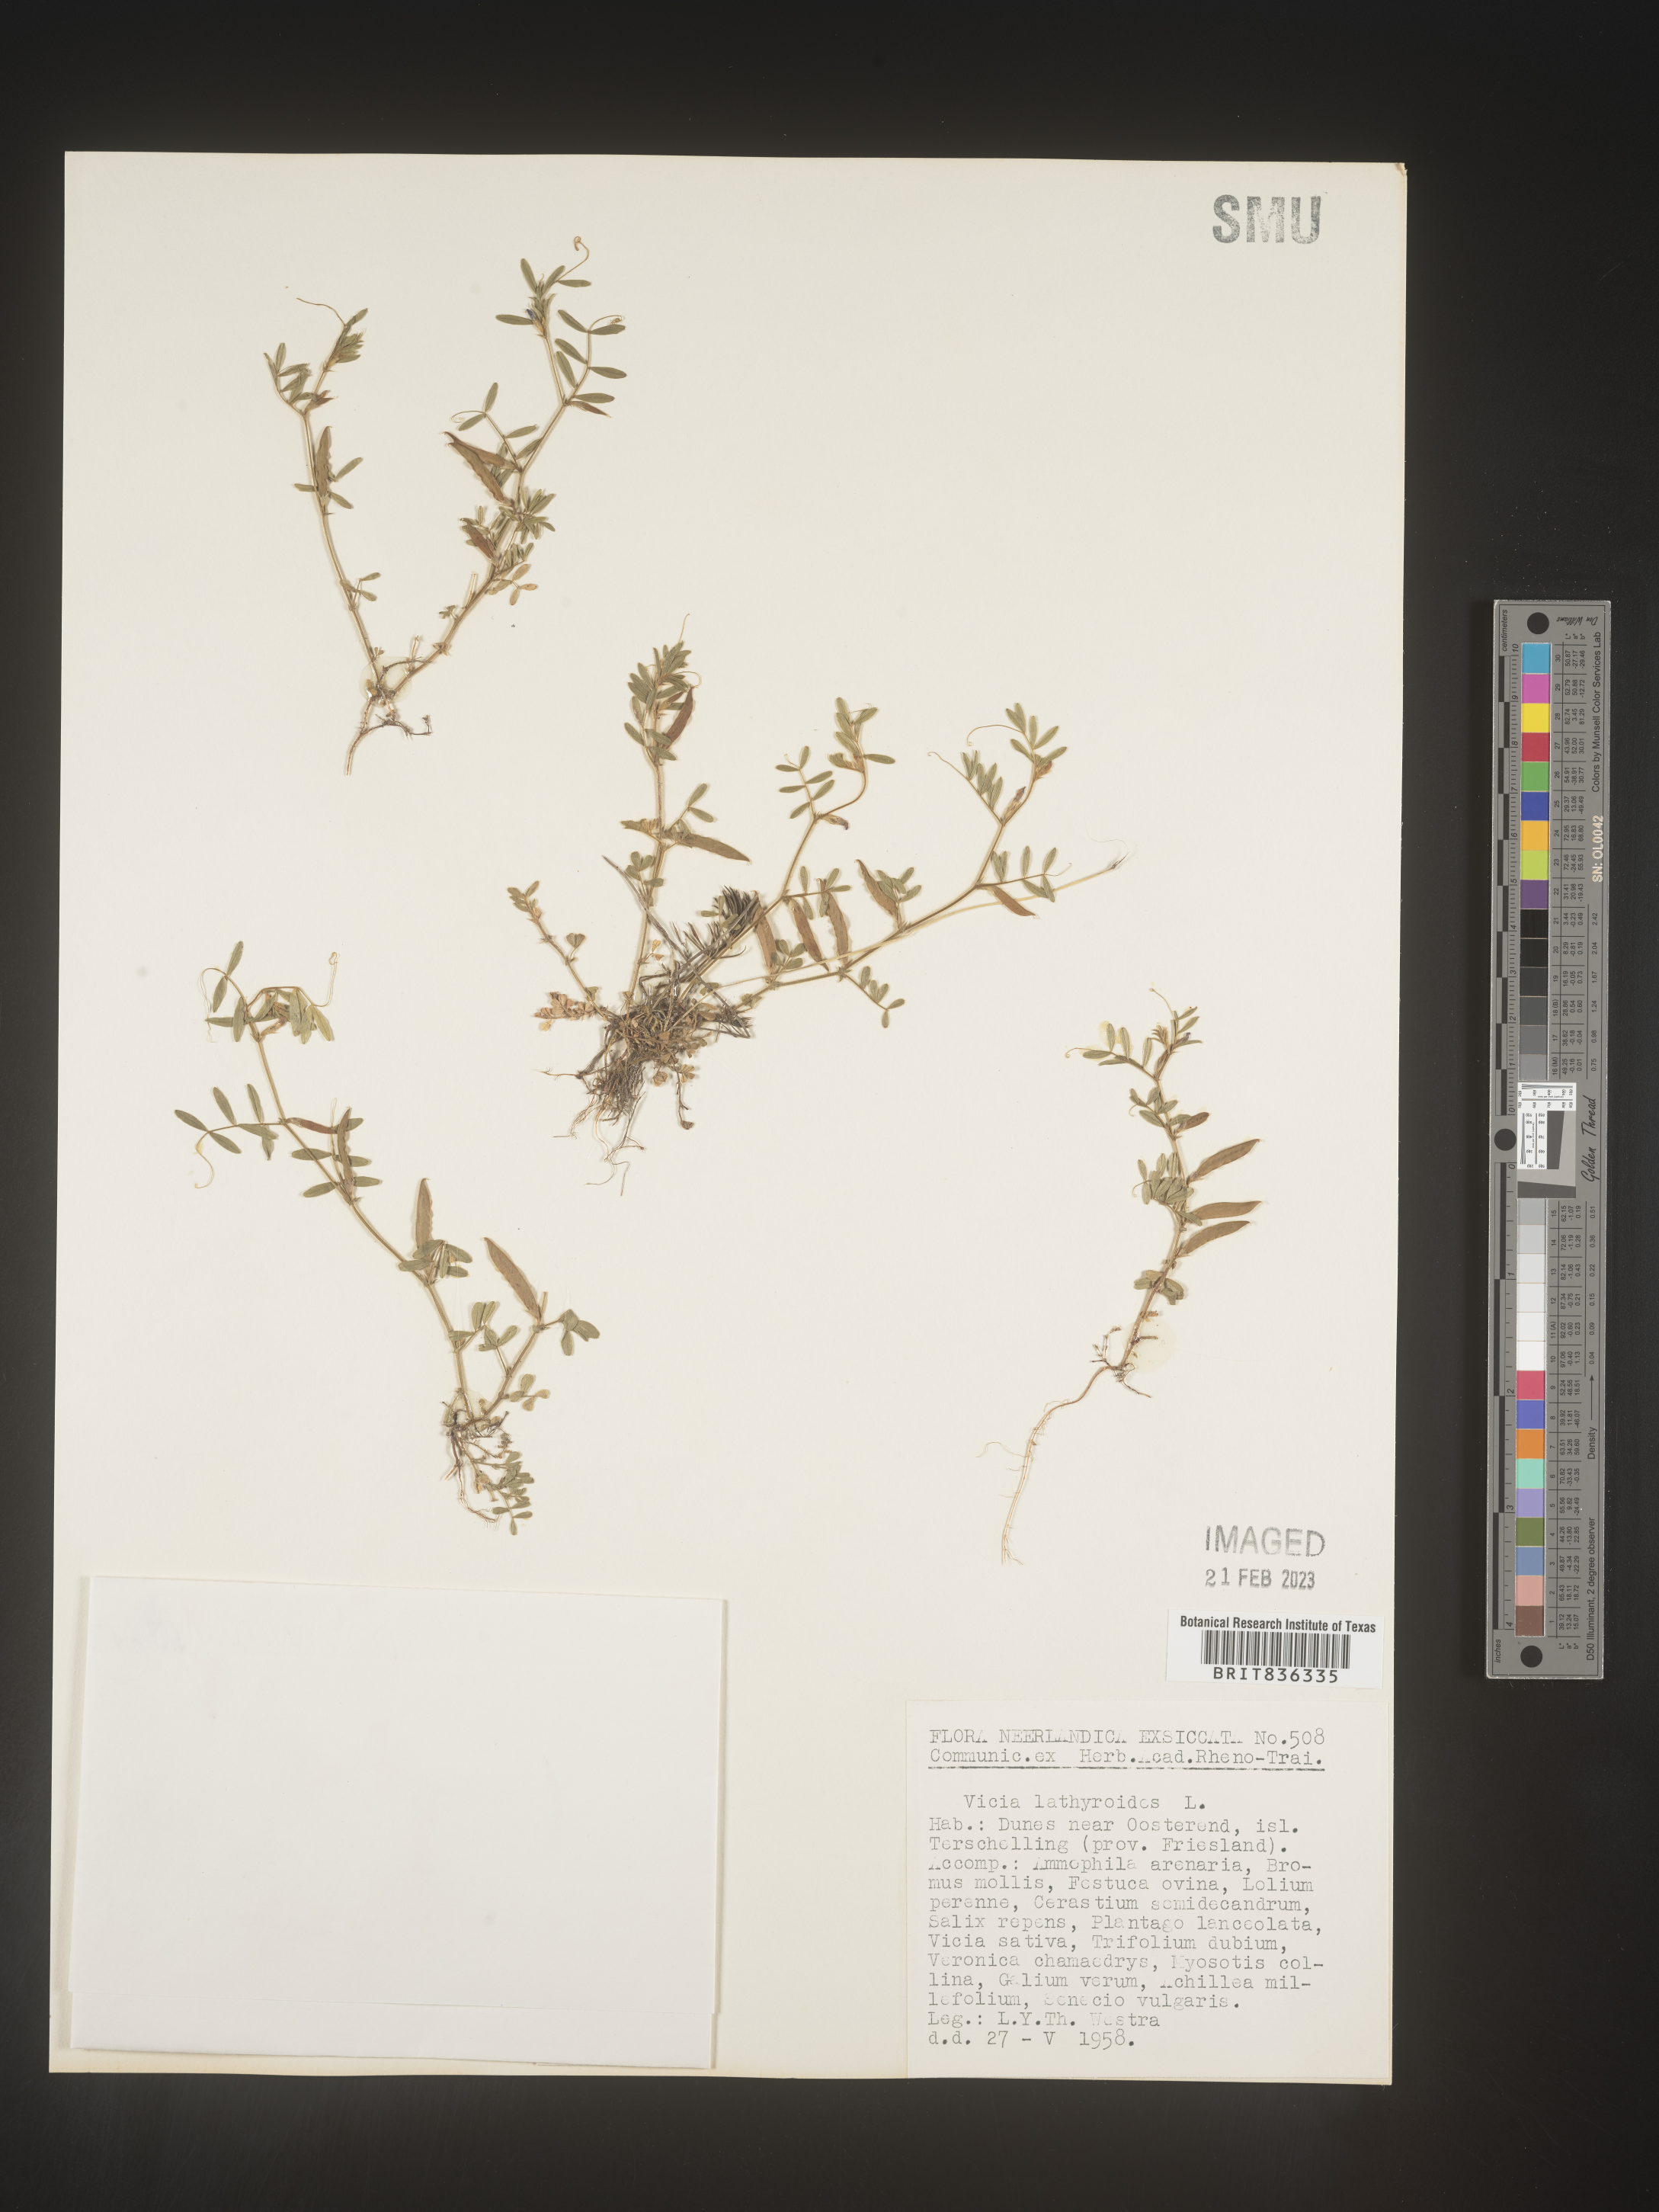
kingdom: Plantae
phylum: Tracheophyta
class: Magnoliopsida
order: Fabales
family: Fabaceae
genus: Vicia
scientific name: Vicia
